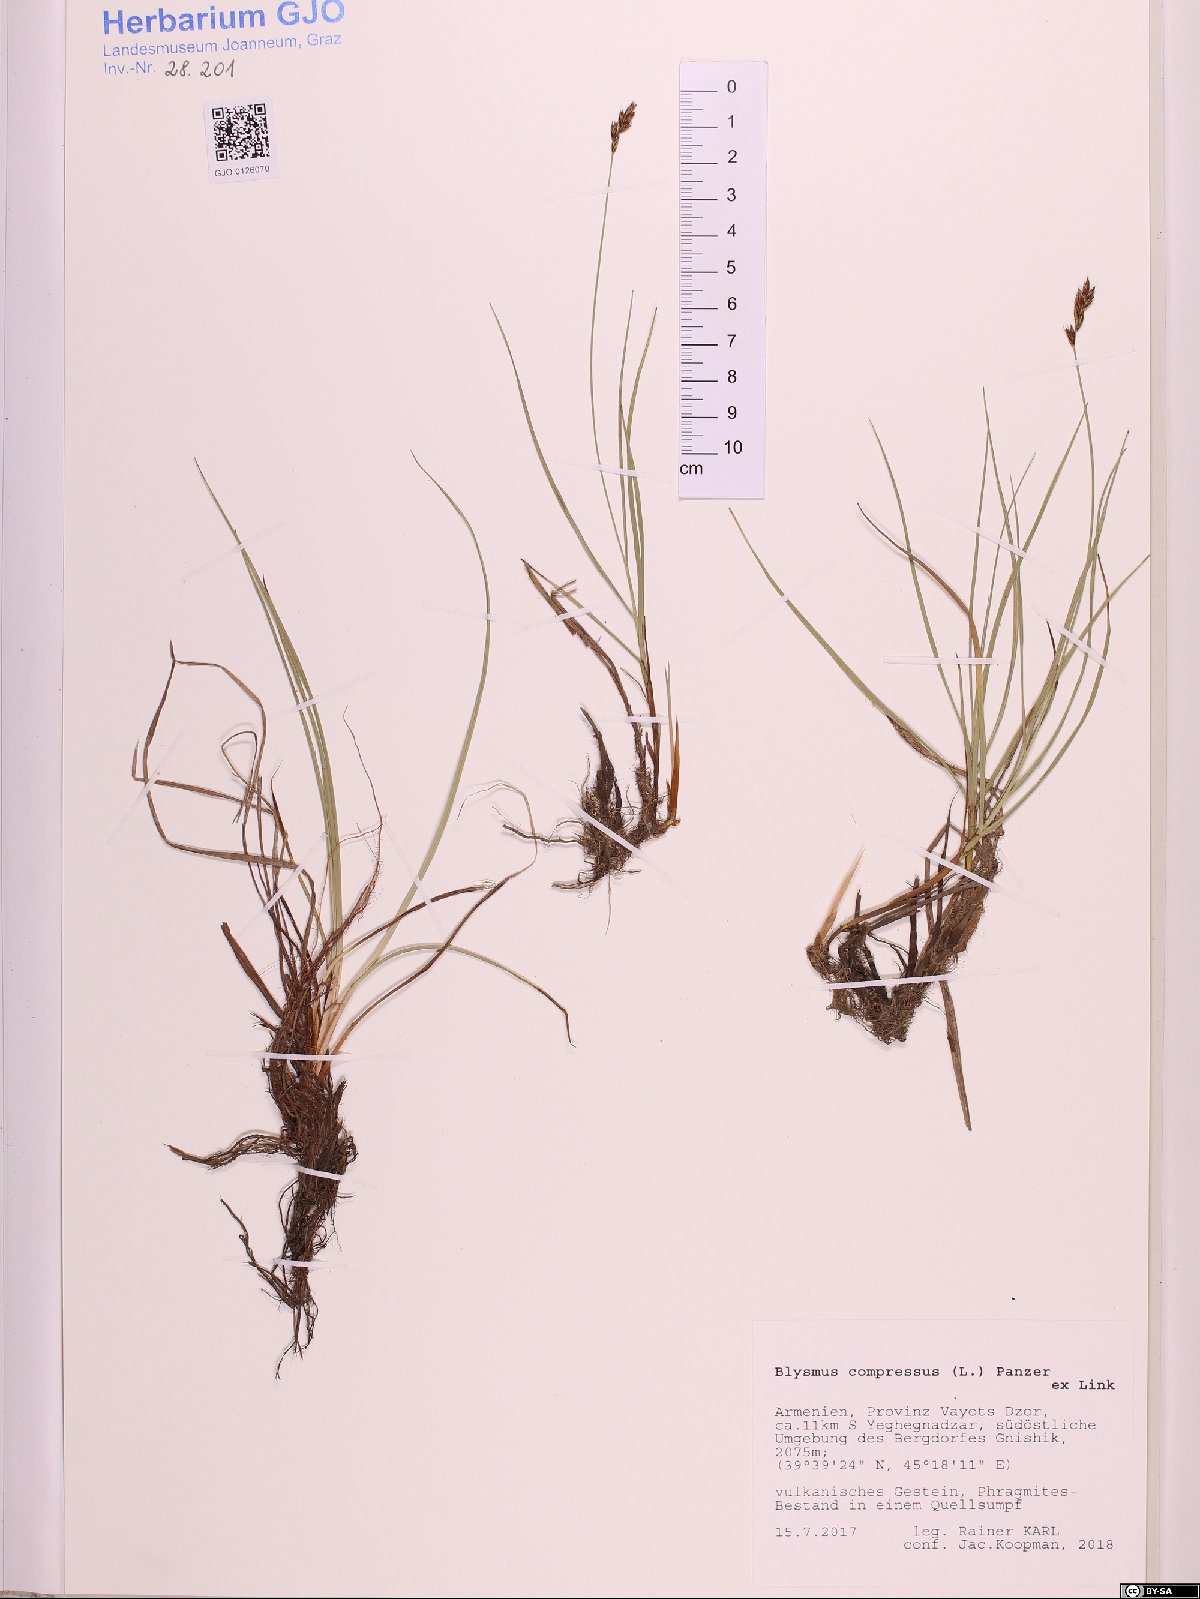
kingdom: Plantae
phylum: Tracheophyta
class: Liliopsida
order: Poales
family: Cyperaceae
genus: Blysmus
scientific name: Blysmus compressus
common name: Flat-sedge
